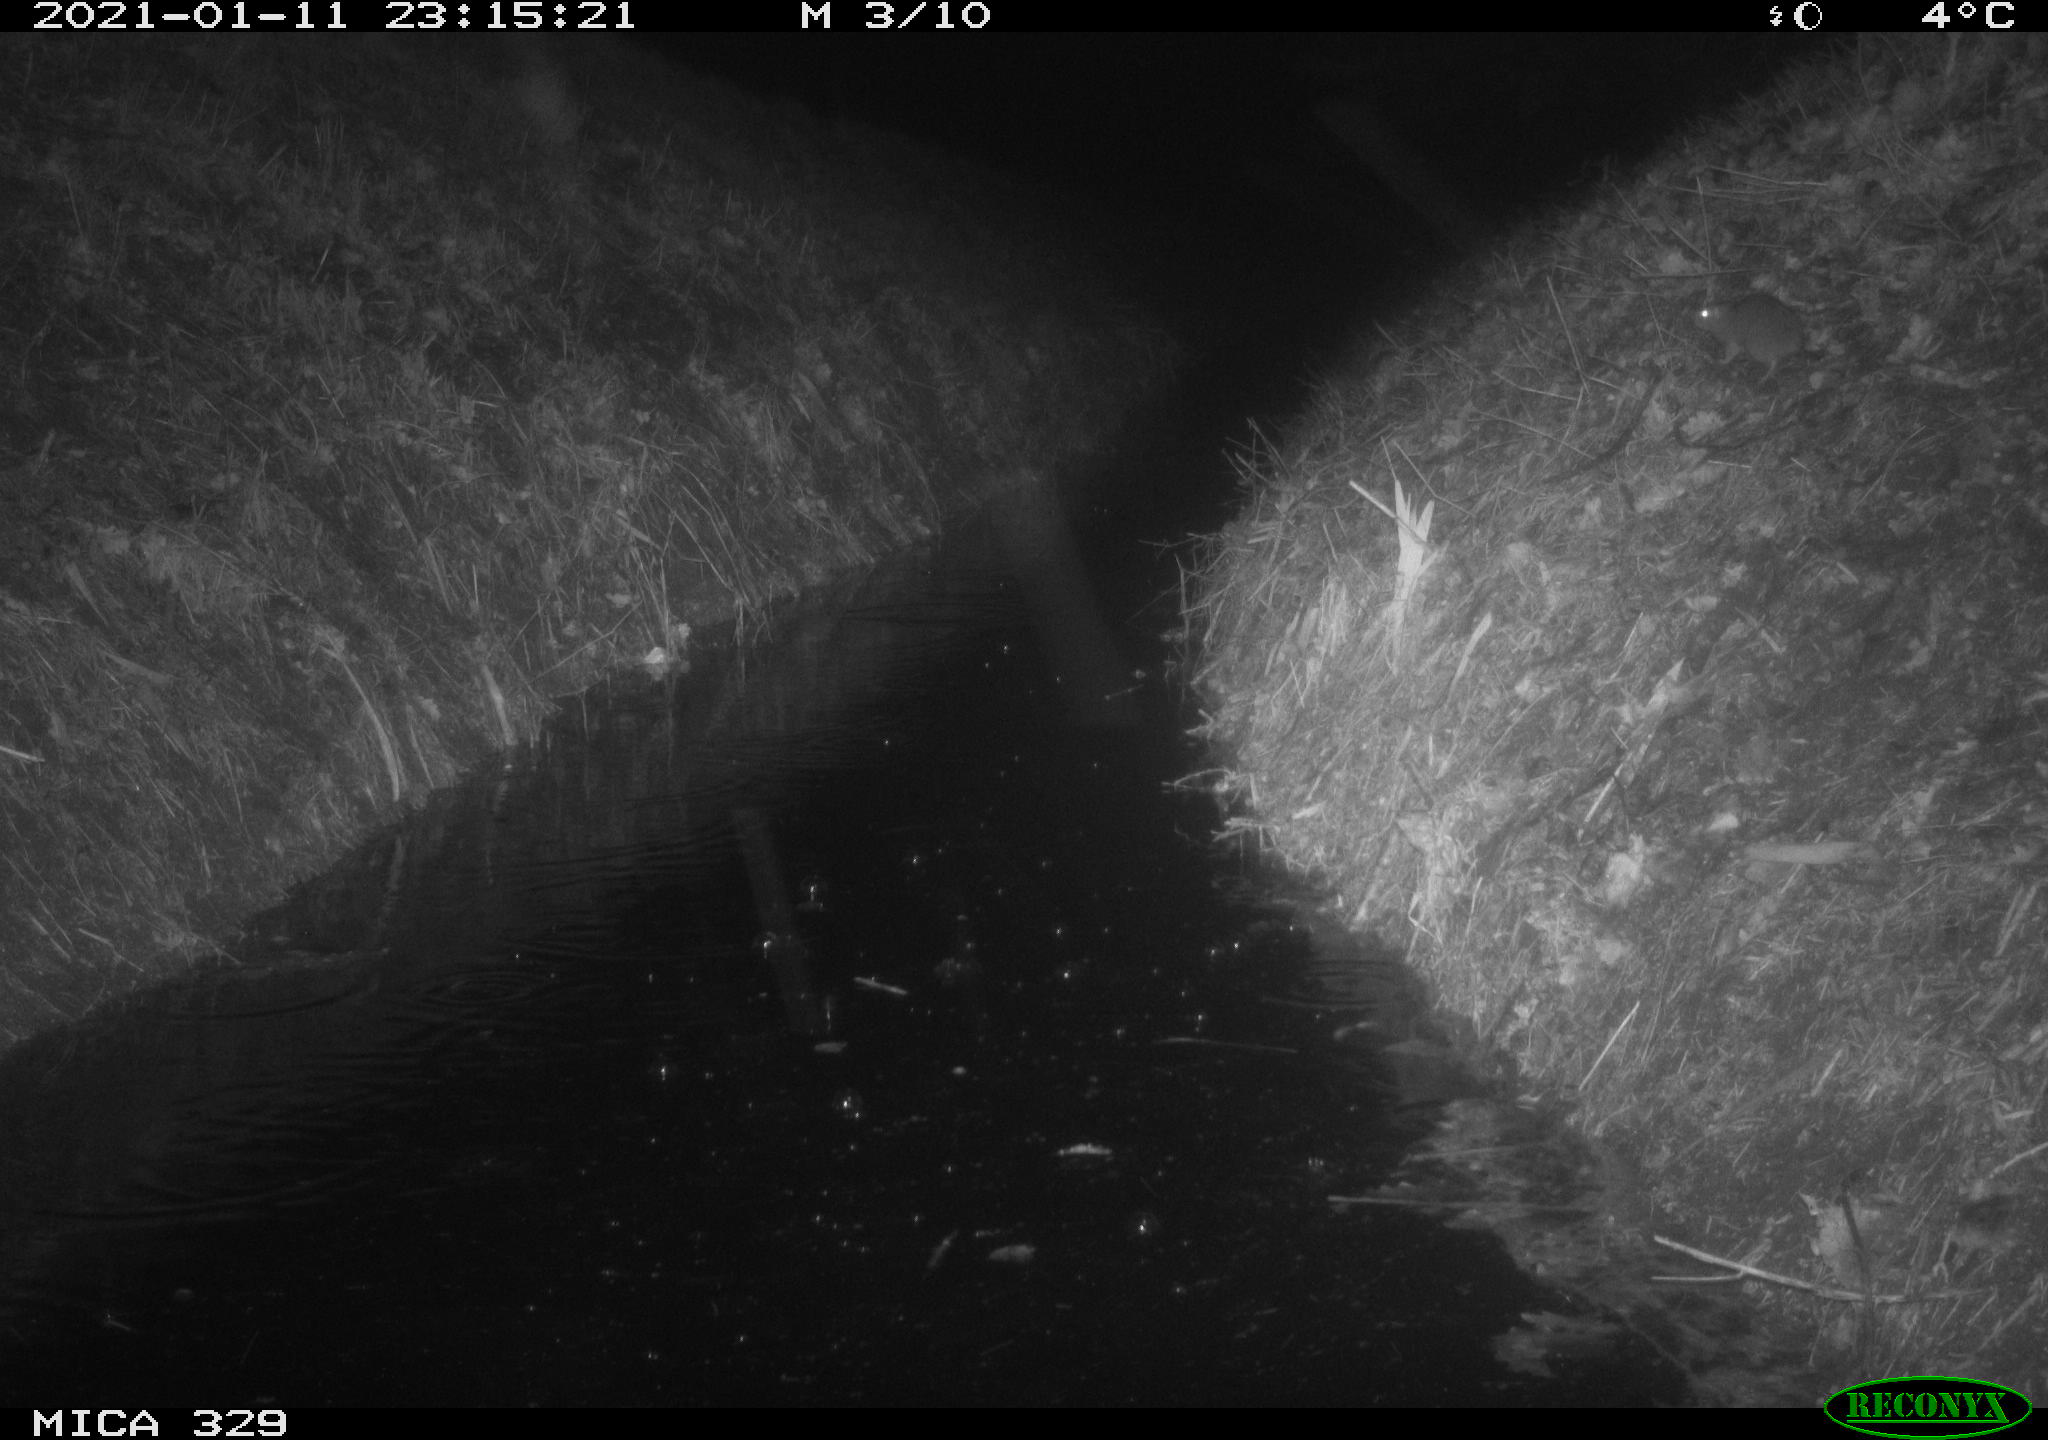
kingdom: Animalia
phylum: Chordata
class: Mammalia
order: Rodentia
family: Muridae
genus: Rattus
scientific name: Rattus norvegicus
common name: Brown rat
